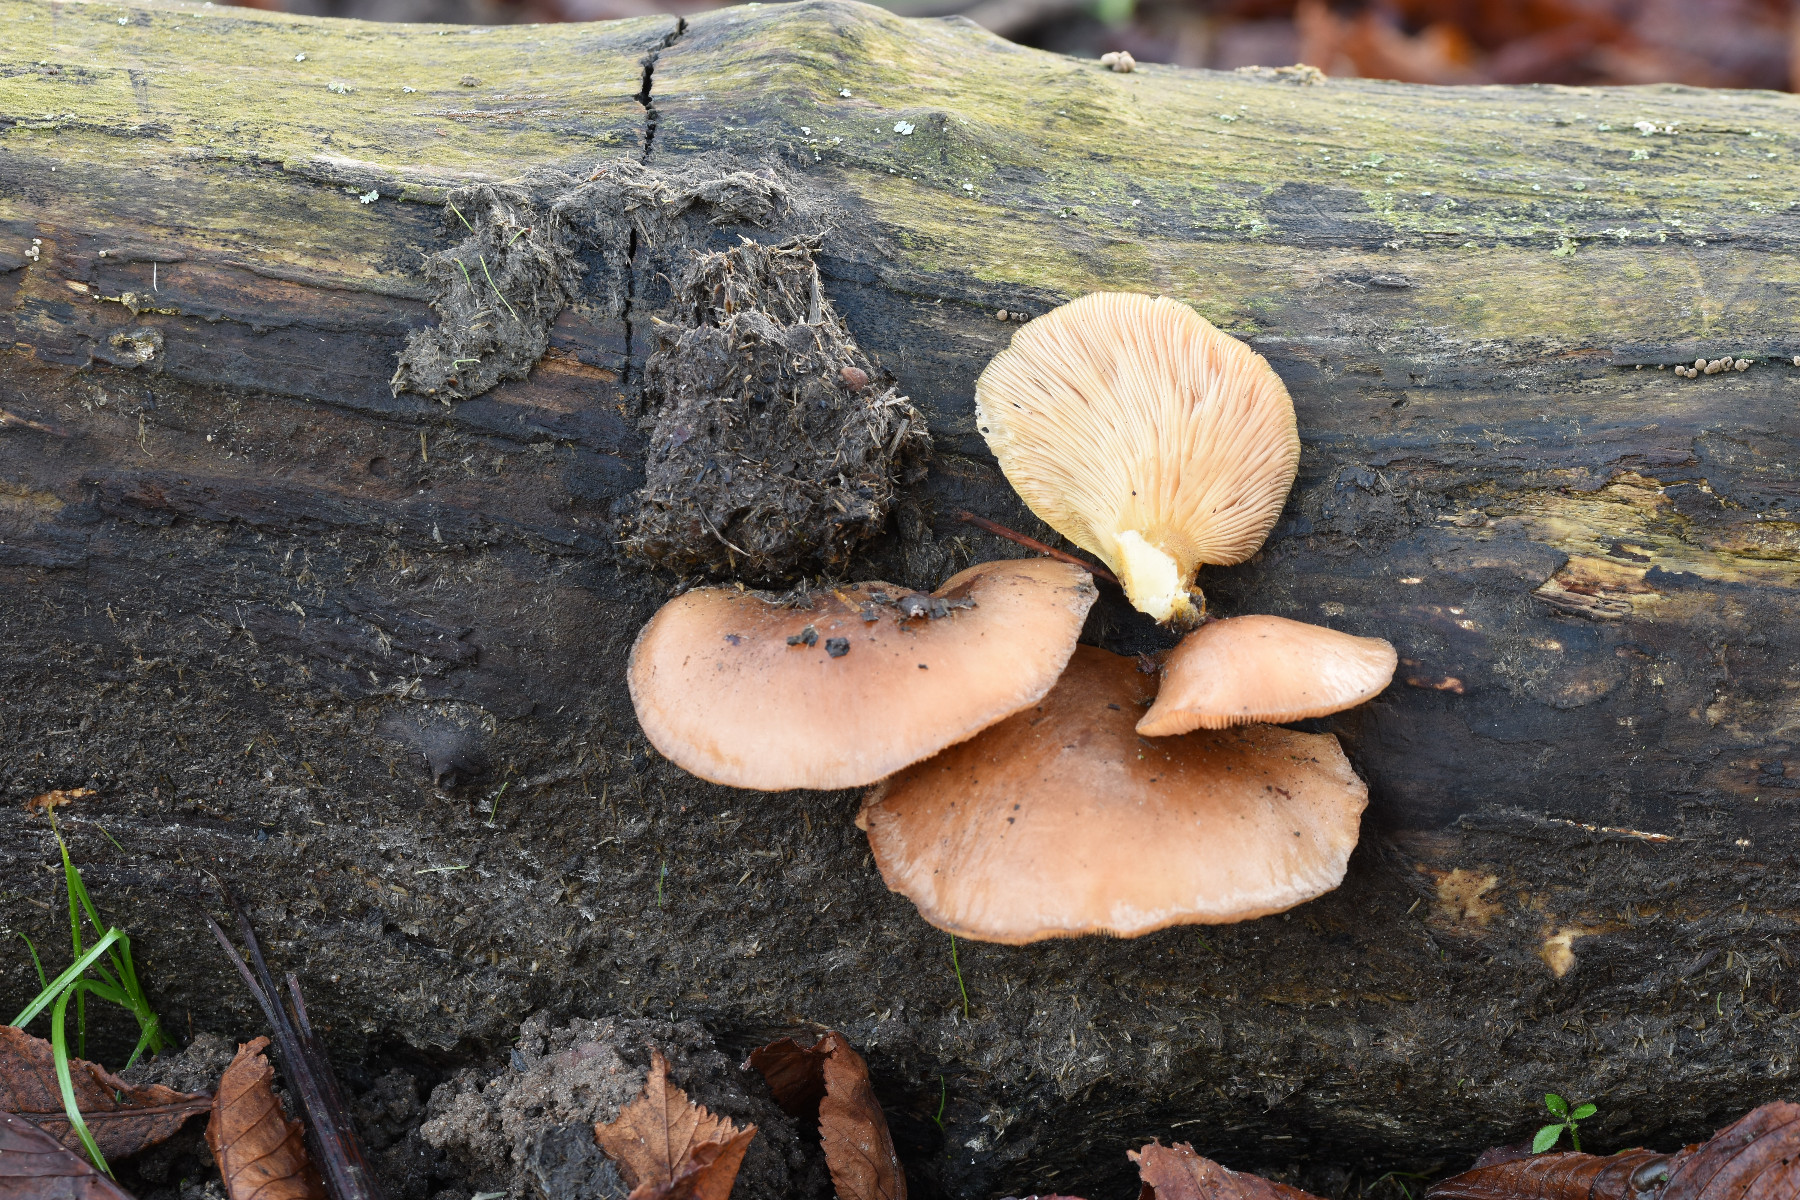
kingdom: Fungi
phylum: Basidiomycota
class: Agaricomycetes
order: Agaricales
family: Sarcomyxaceae
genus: Sarcomyxa
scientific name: Sarcomyxa serotina
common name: gummihat
